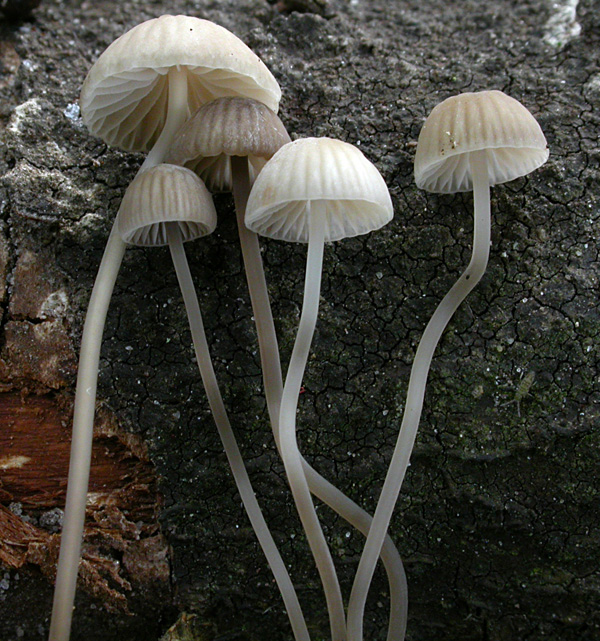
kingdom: Fungi
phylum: Basidiomycota
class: Agaricomycetes
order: Agaricales
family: Mycenaceae
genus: Mycena
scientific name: Mycena mirata
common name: krat-huesvamp
